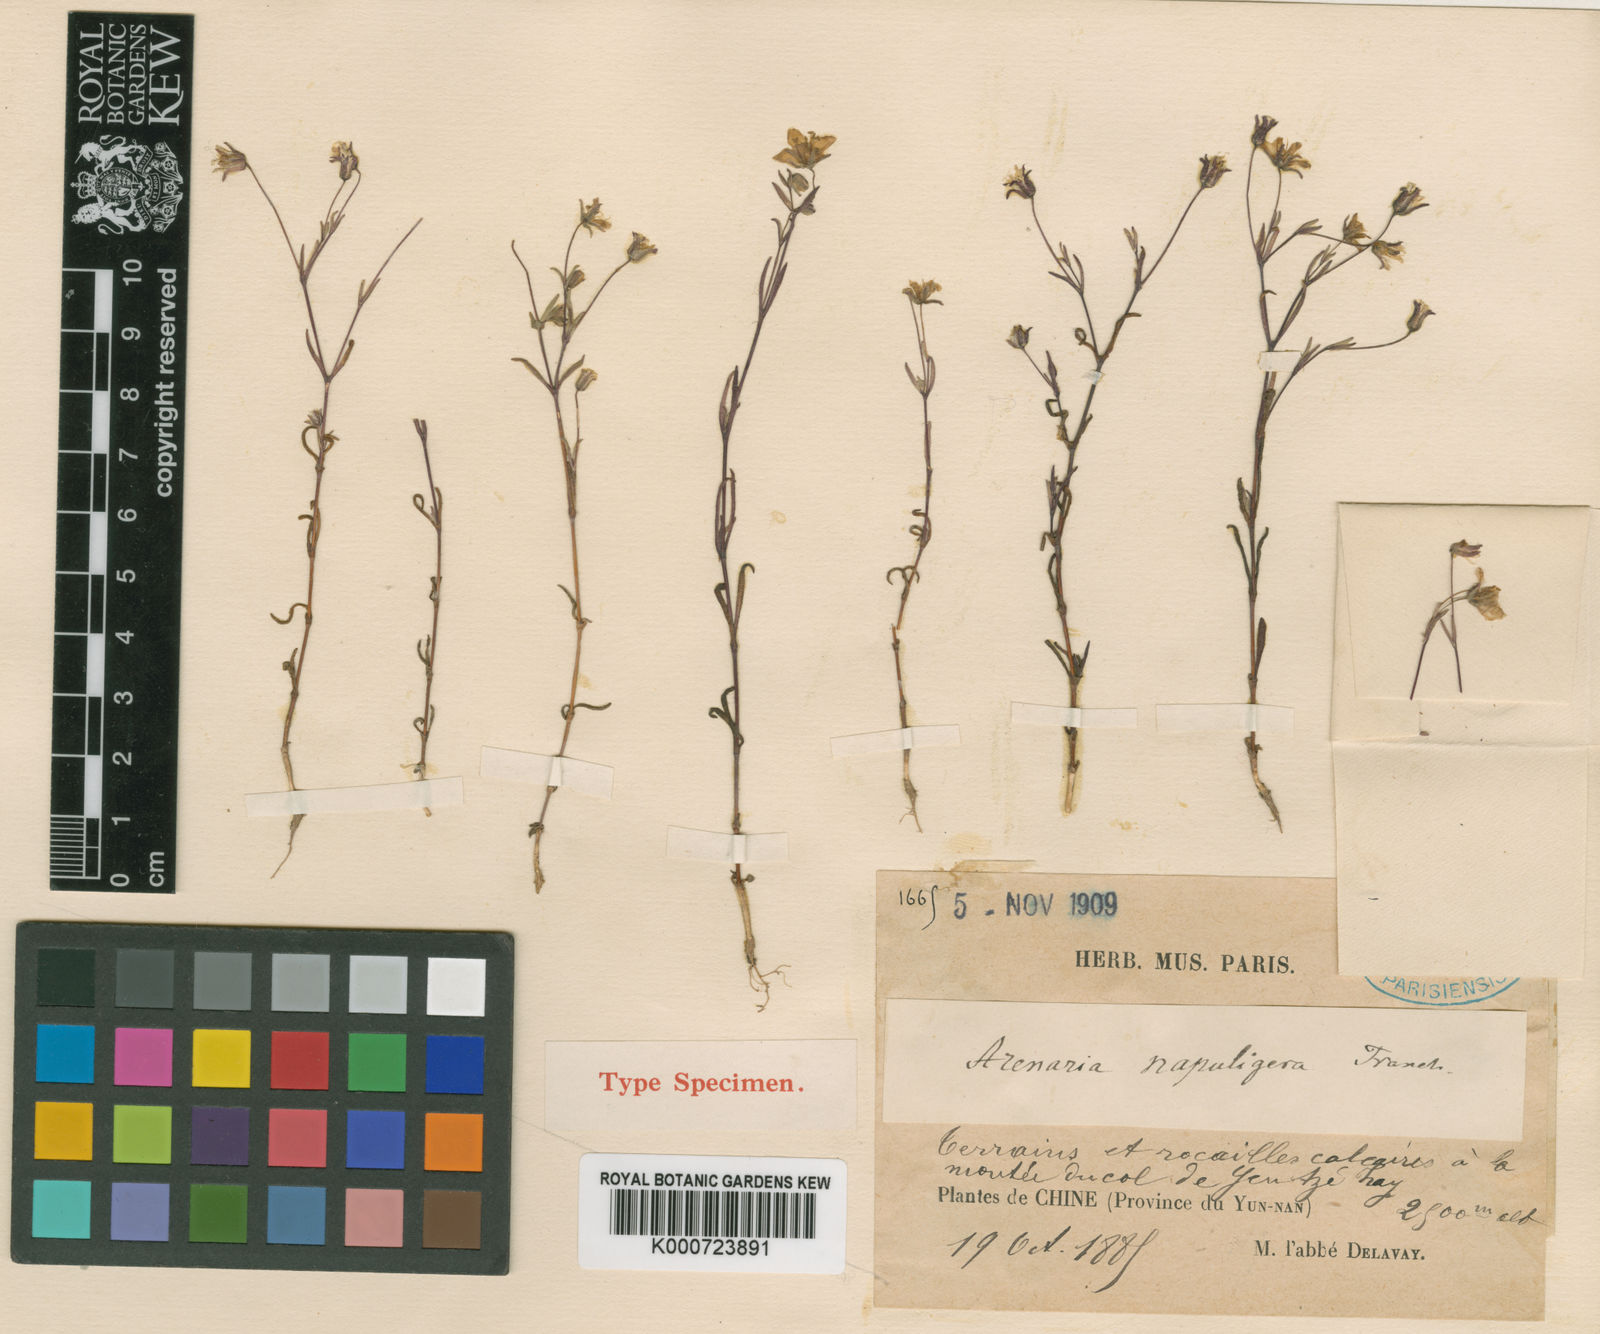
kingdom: Plantae
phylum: Tracheophyta
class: Magnoliopsida
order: Caryophyllales
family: Caryophyllaceae
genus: Odontostemma
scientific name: Odontostemma napuligerum
